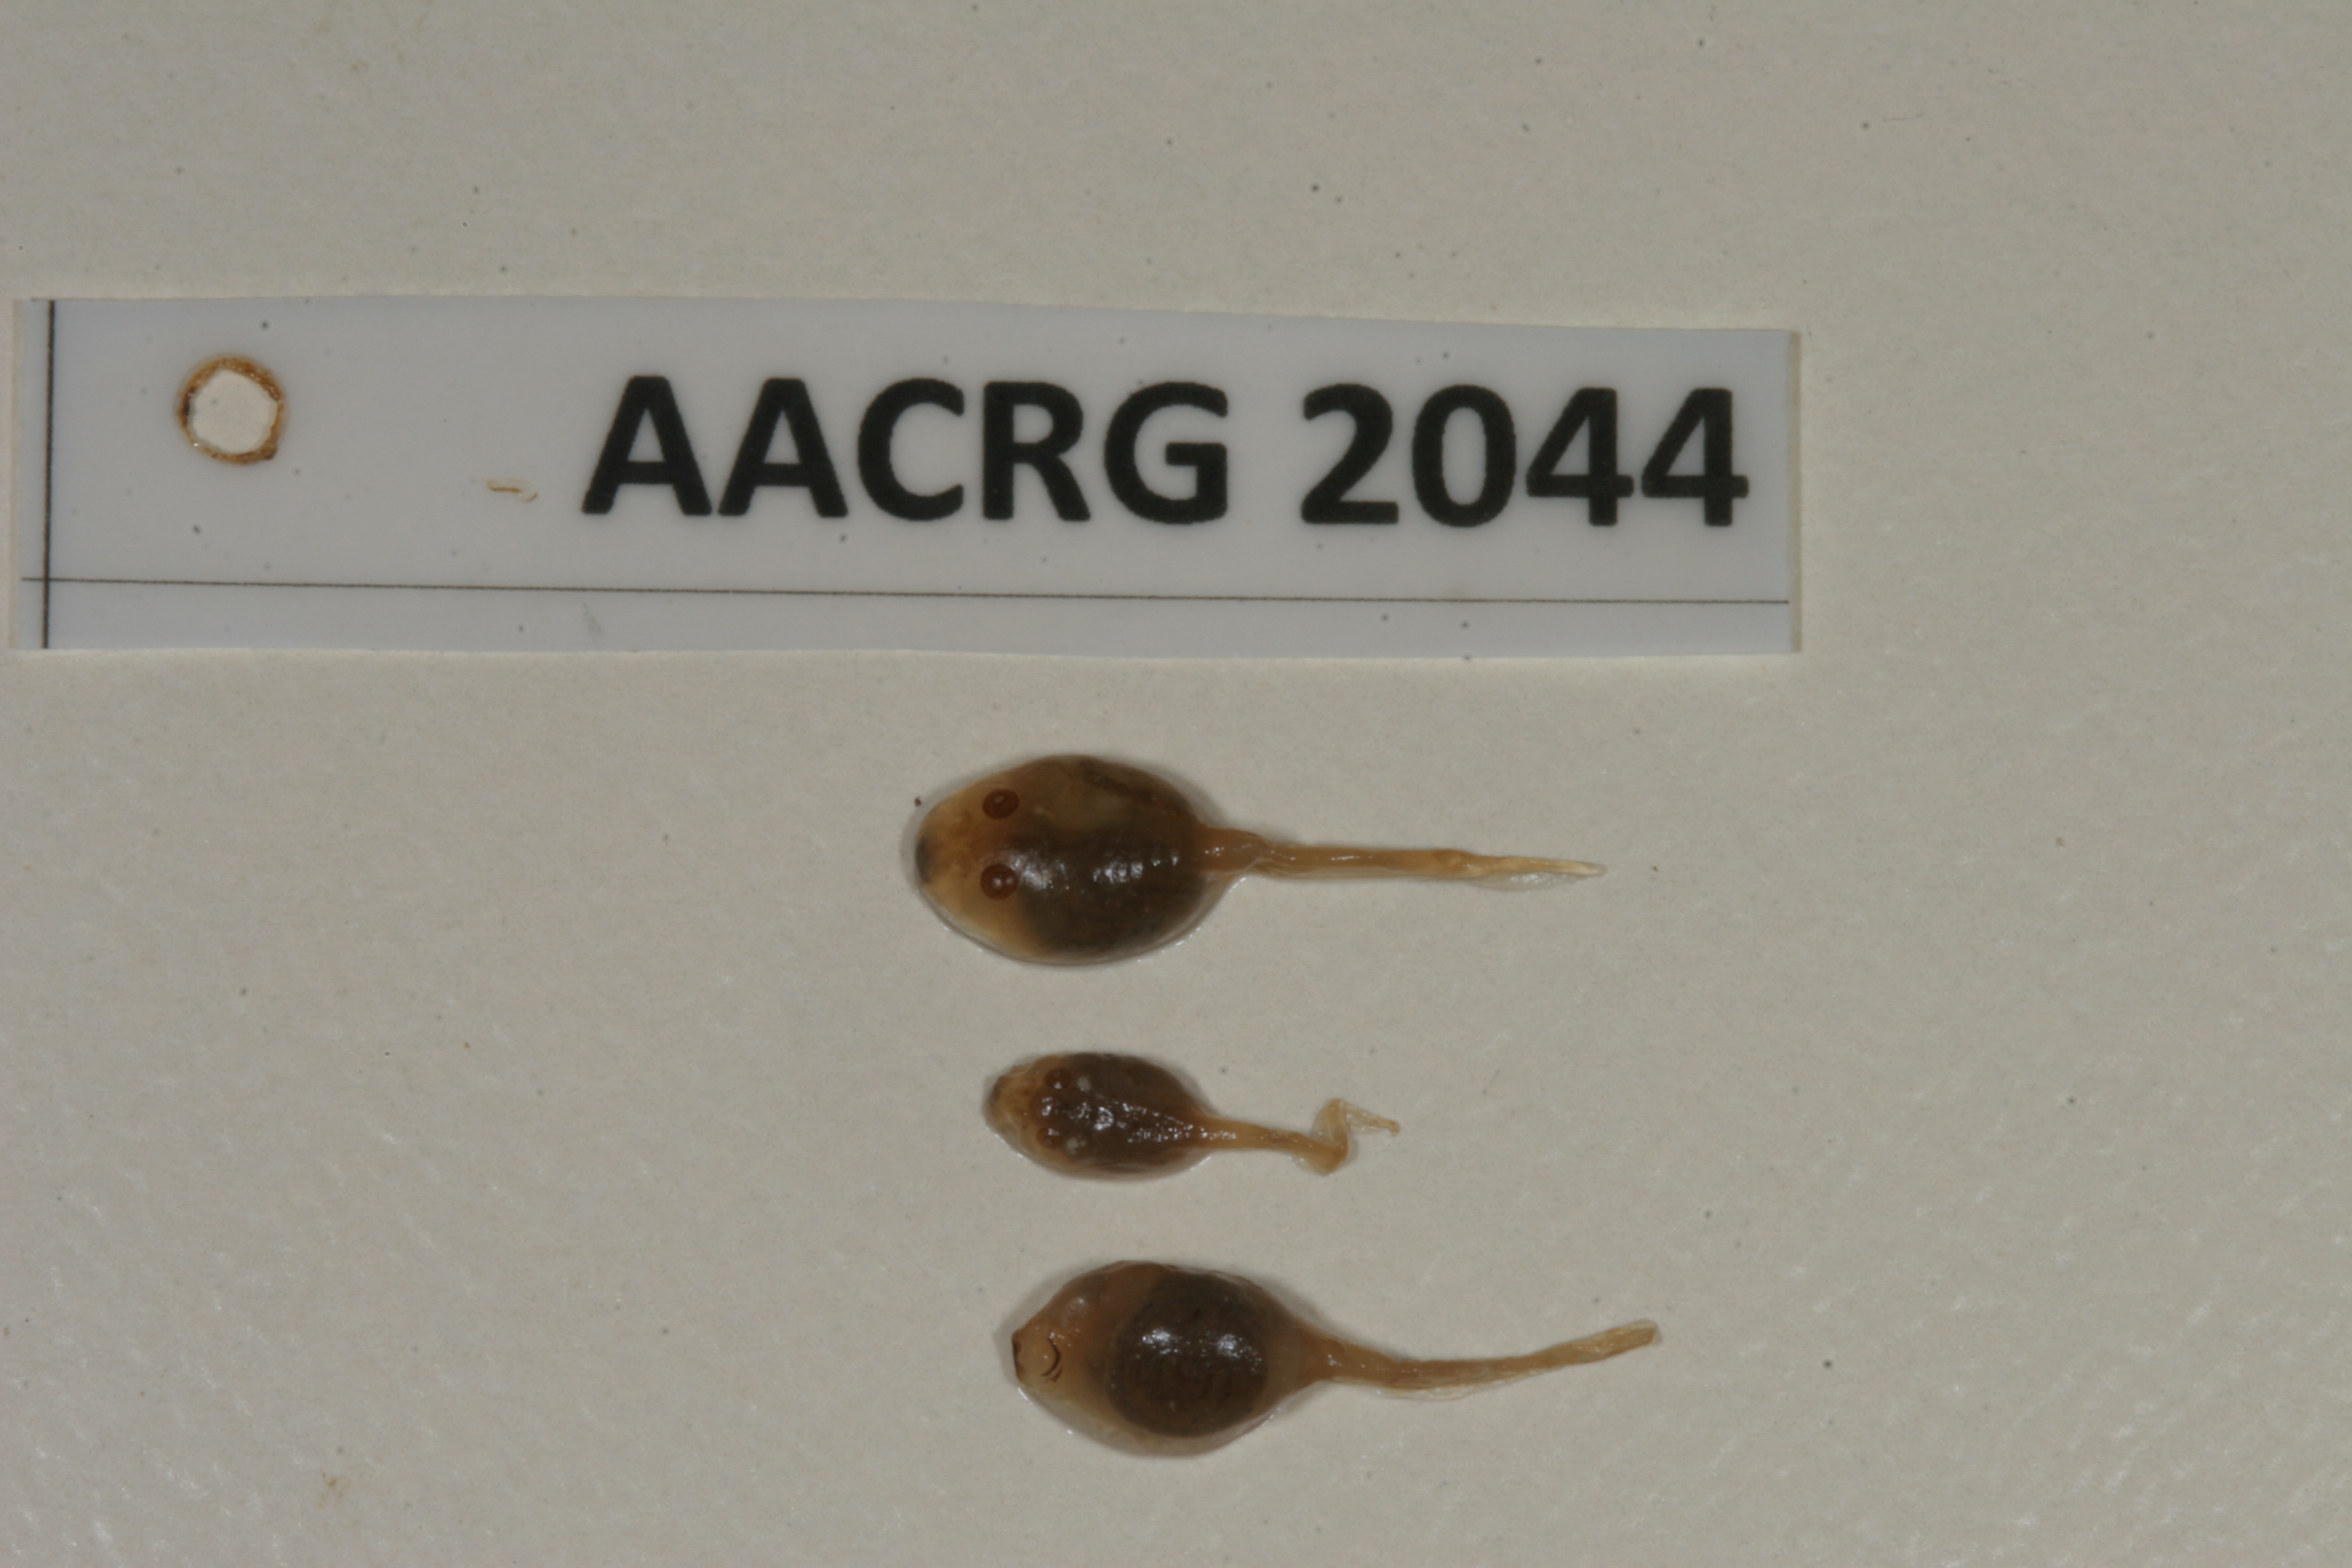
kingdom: Animalia
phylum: Chordata
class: Amphibia
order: Anura
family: Bufonidae
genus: Sclerophrys
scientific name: Sclerophrys gutturalis
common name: African common toad
